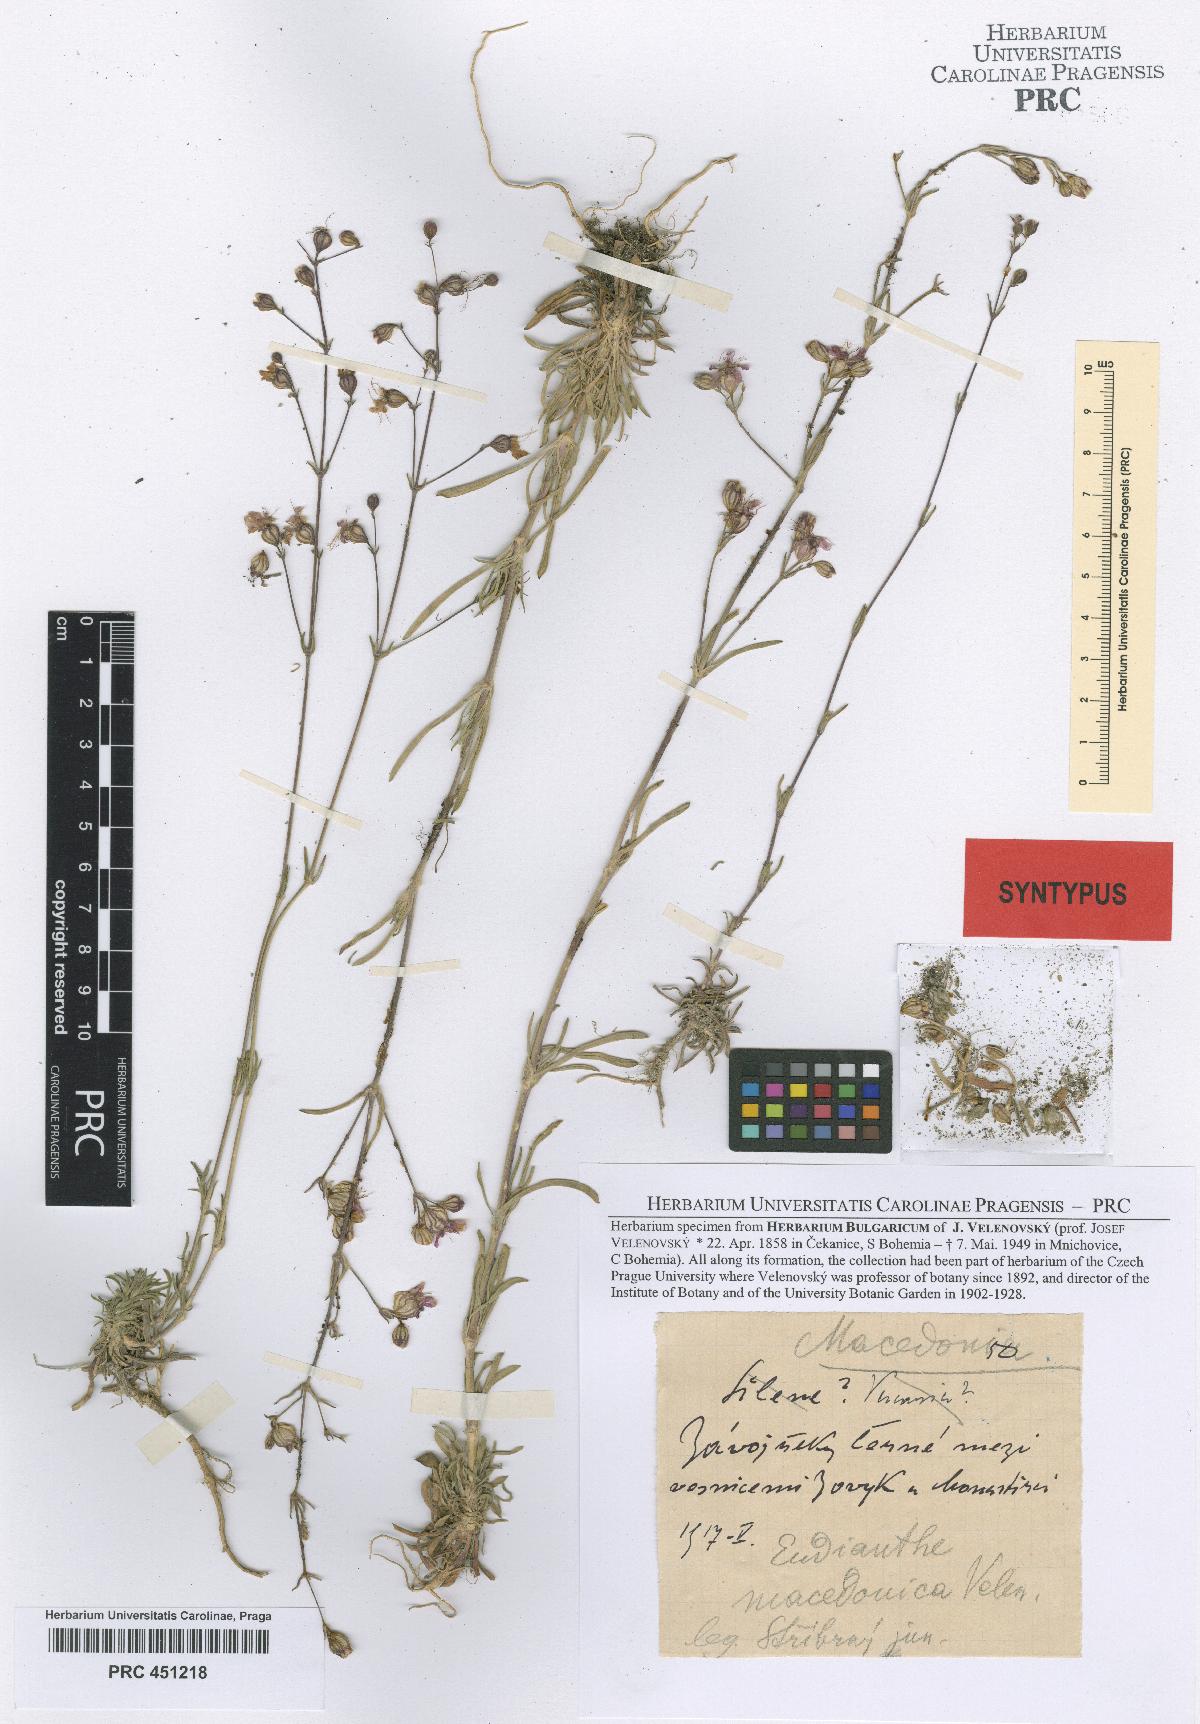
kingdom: Plantae
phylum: Tracheophyta
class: Magnoliopsida
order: Caryophyllales
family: Caryophyllaceae
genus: Silene
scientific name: Silene viscariopsis
